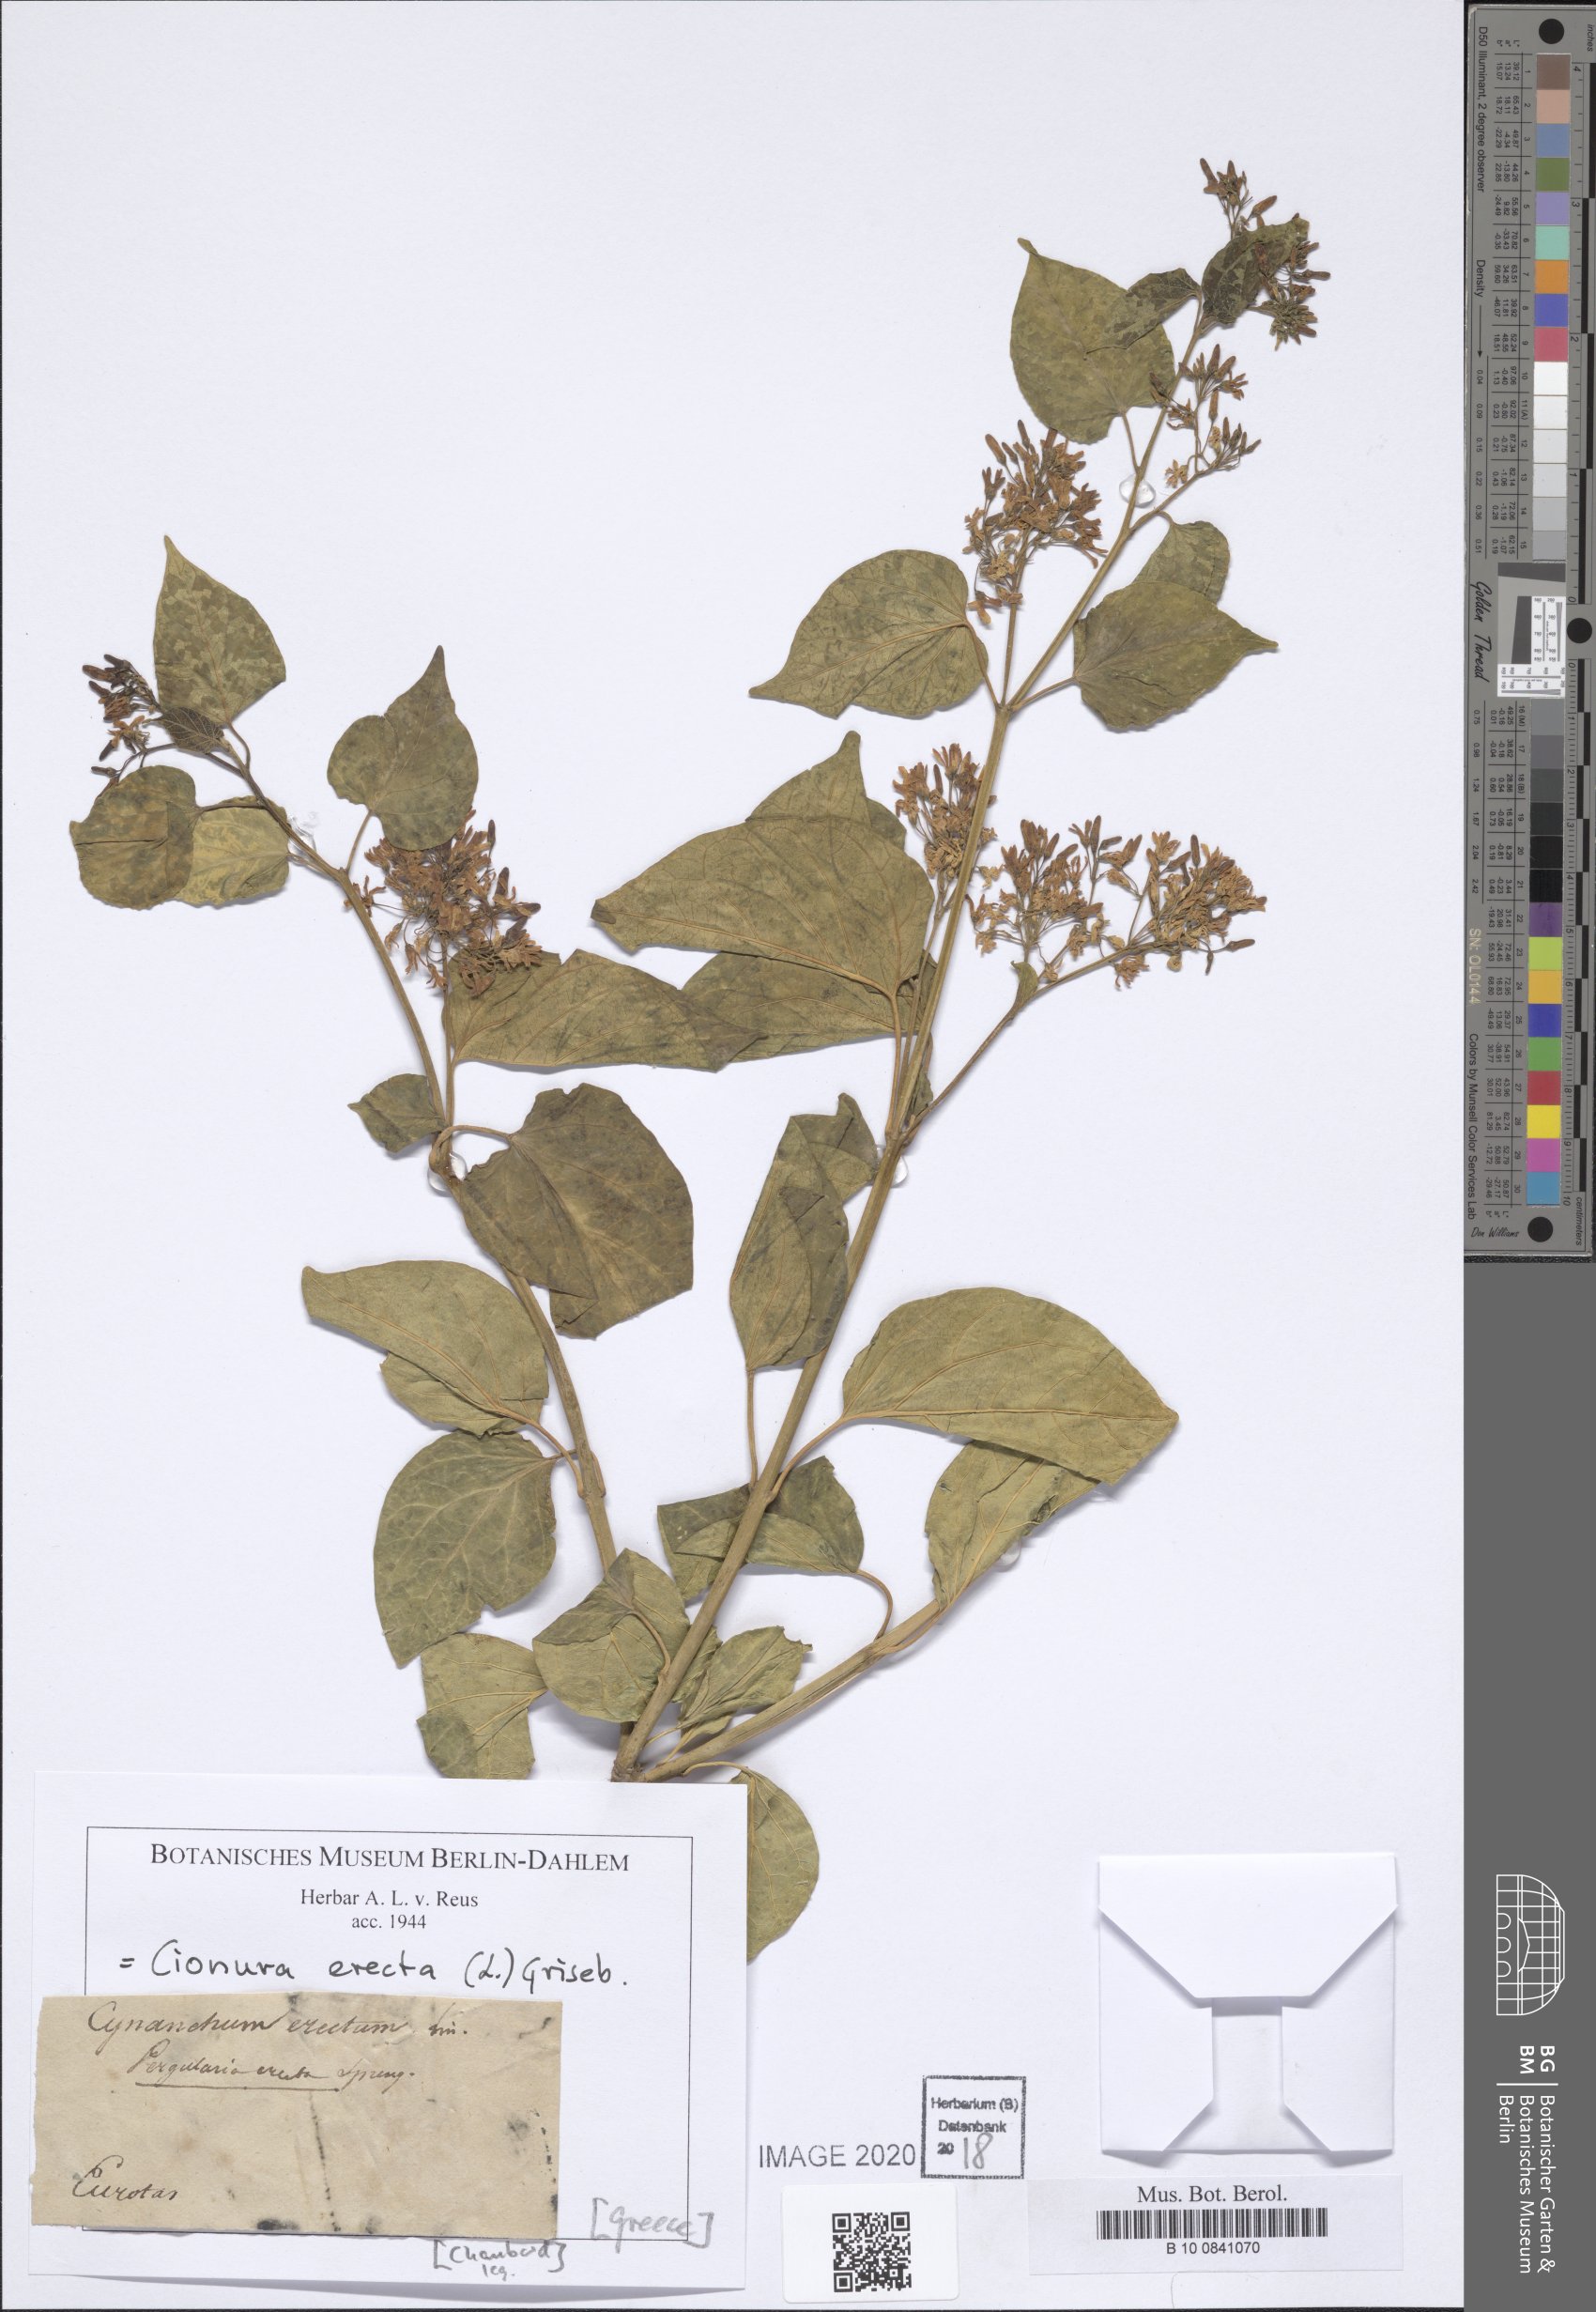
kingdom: Plantae
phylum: Tracheophyta
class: Magnoliopsida
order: Gentianales
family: Apocynaceae
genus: Cionura
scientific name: Cionura erecta
